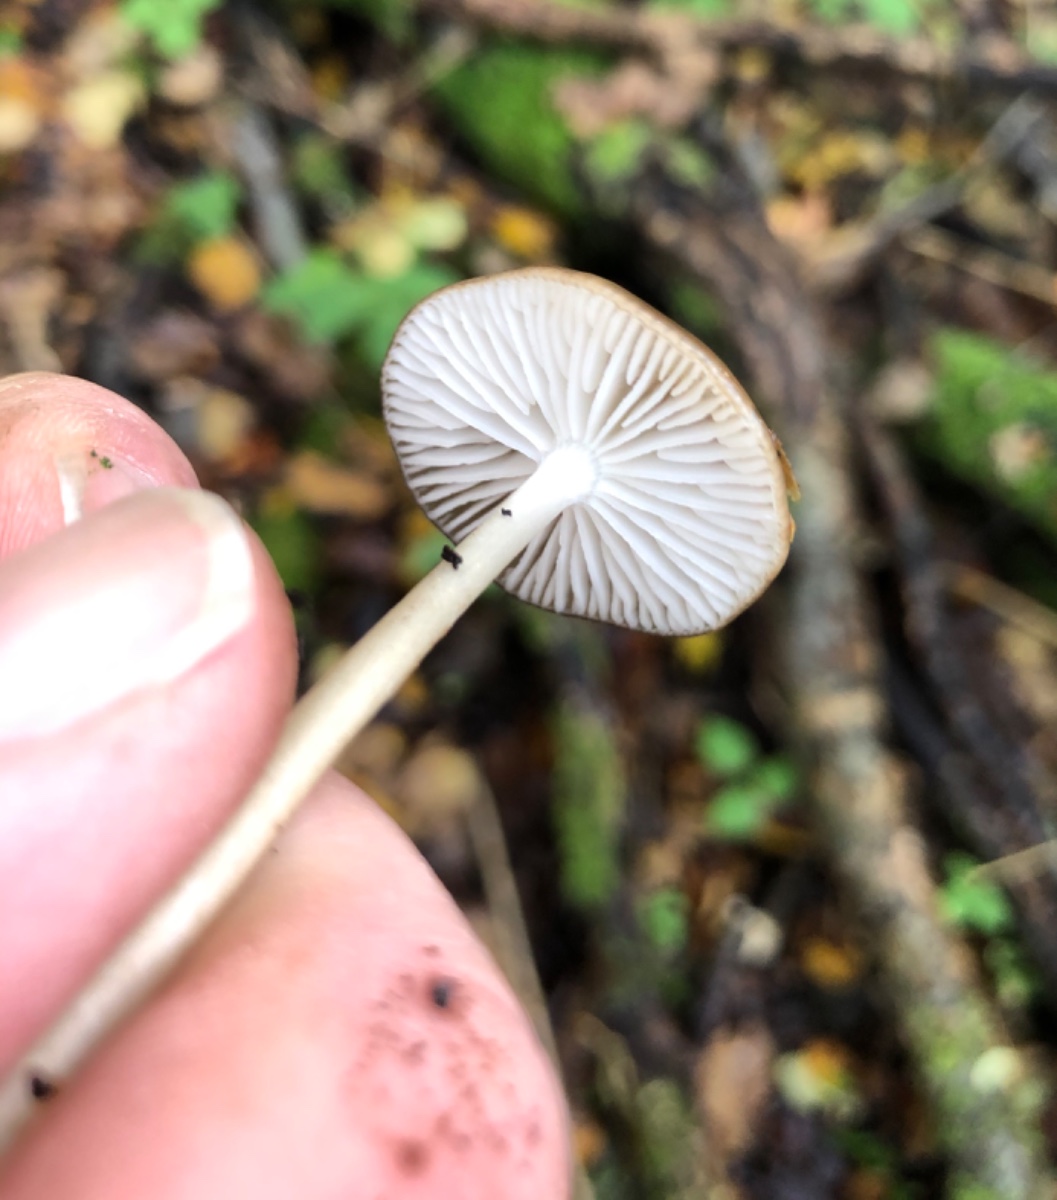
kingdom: Fungi
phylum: Basidiomycota
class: Agaricomycetes
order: Agaricales
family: Physalacriaceae
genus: Hymenopellis
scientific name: Hymenopellis radicata
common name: almindelig pælerodshat
